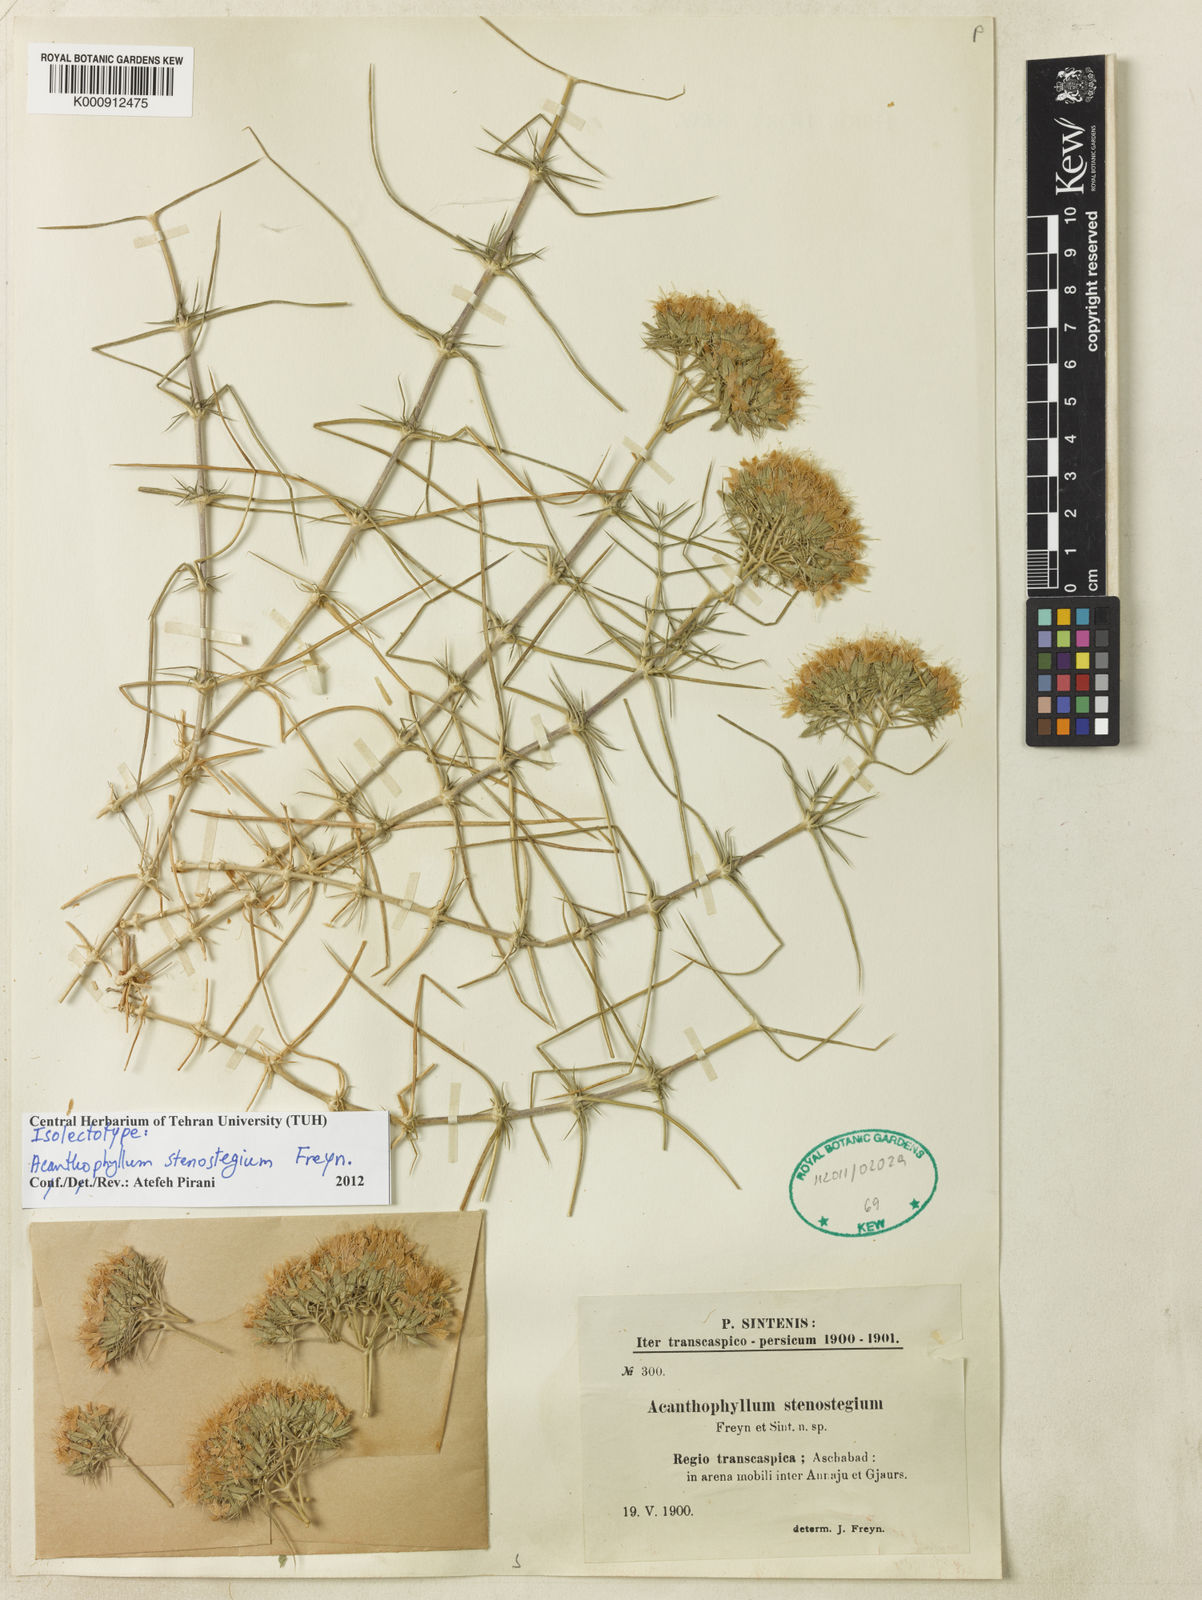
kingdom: Plantae
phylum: Tracheophyta
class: Magnoliopsida
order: Caryophyllales
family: Caryophyllaceae
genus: Acanthophyllum
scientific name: Acanthophyllum stenostegium
